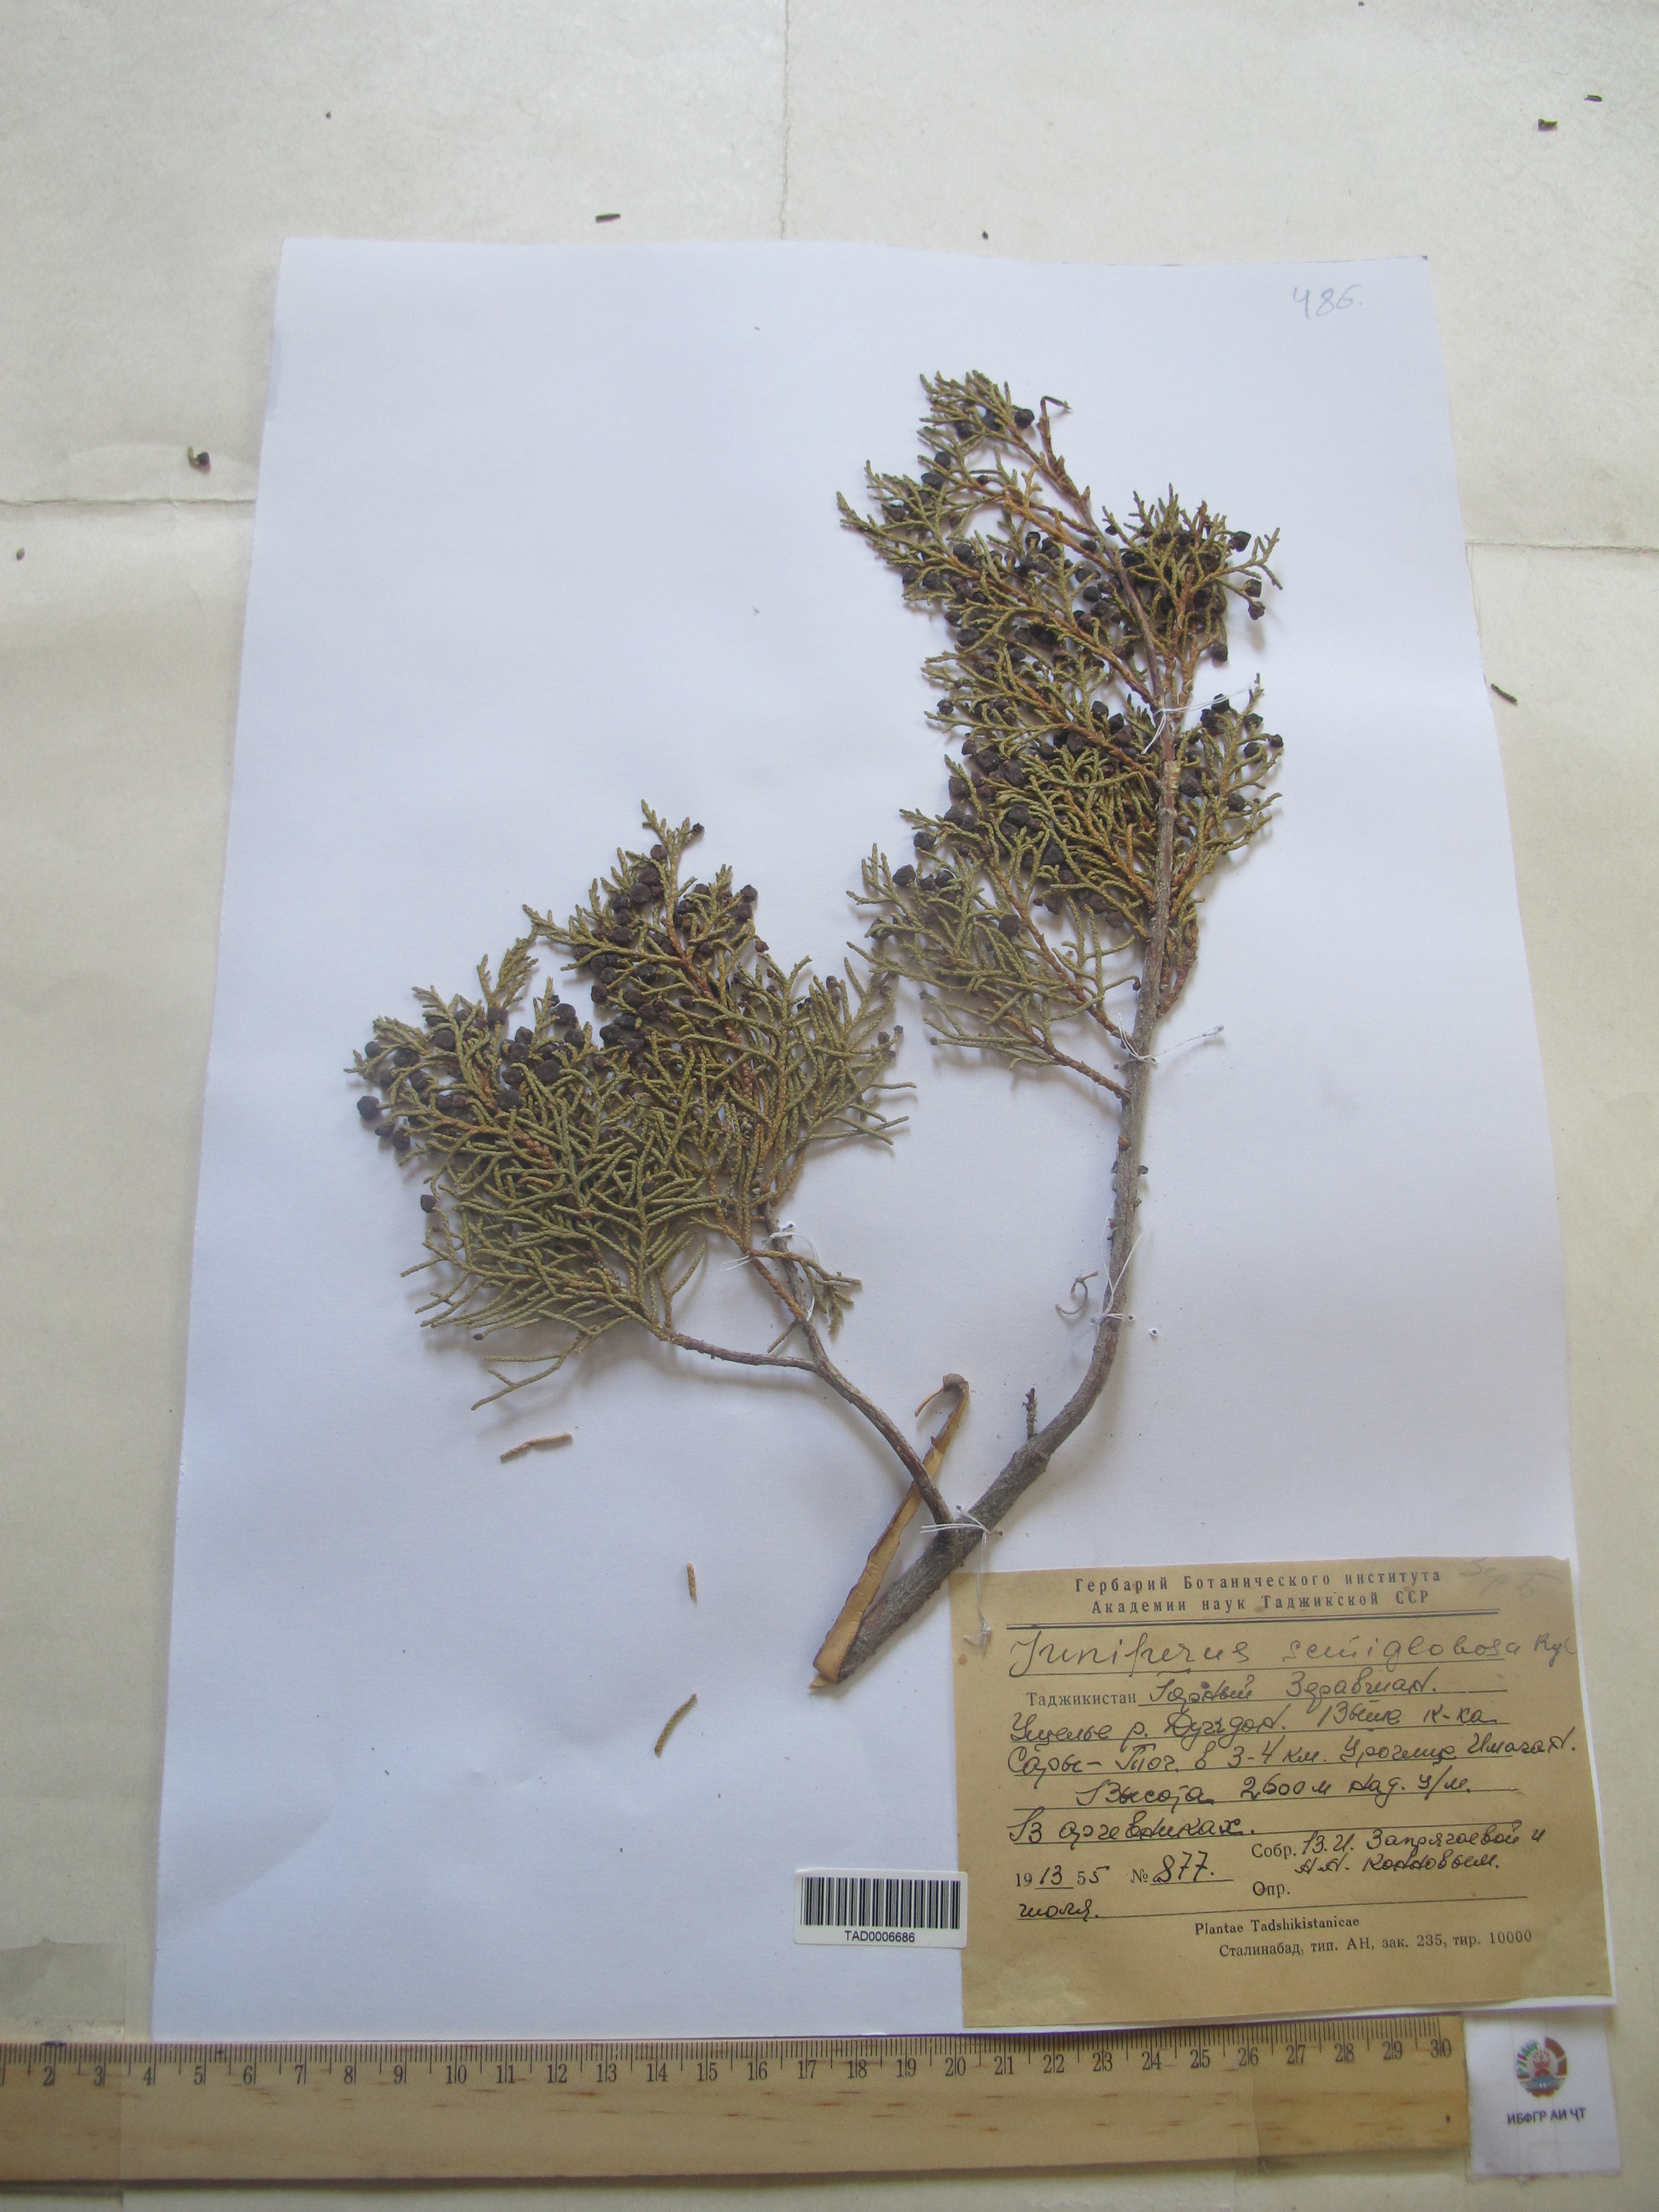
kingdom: Plantae
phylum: Tracheophyta
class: Pinopsida
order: Pinales
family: Cupressaceae
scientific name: Cupressaceae
